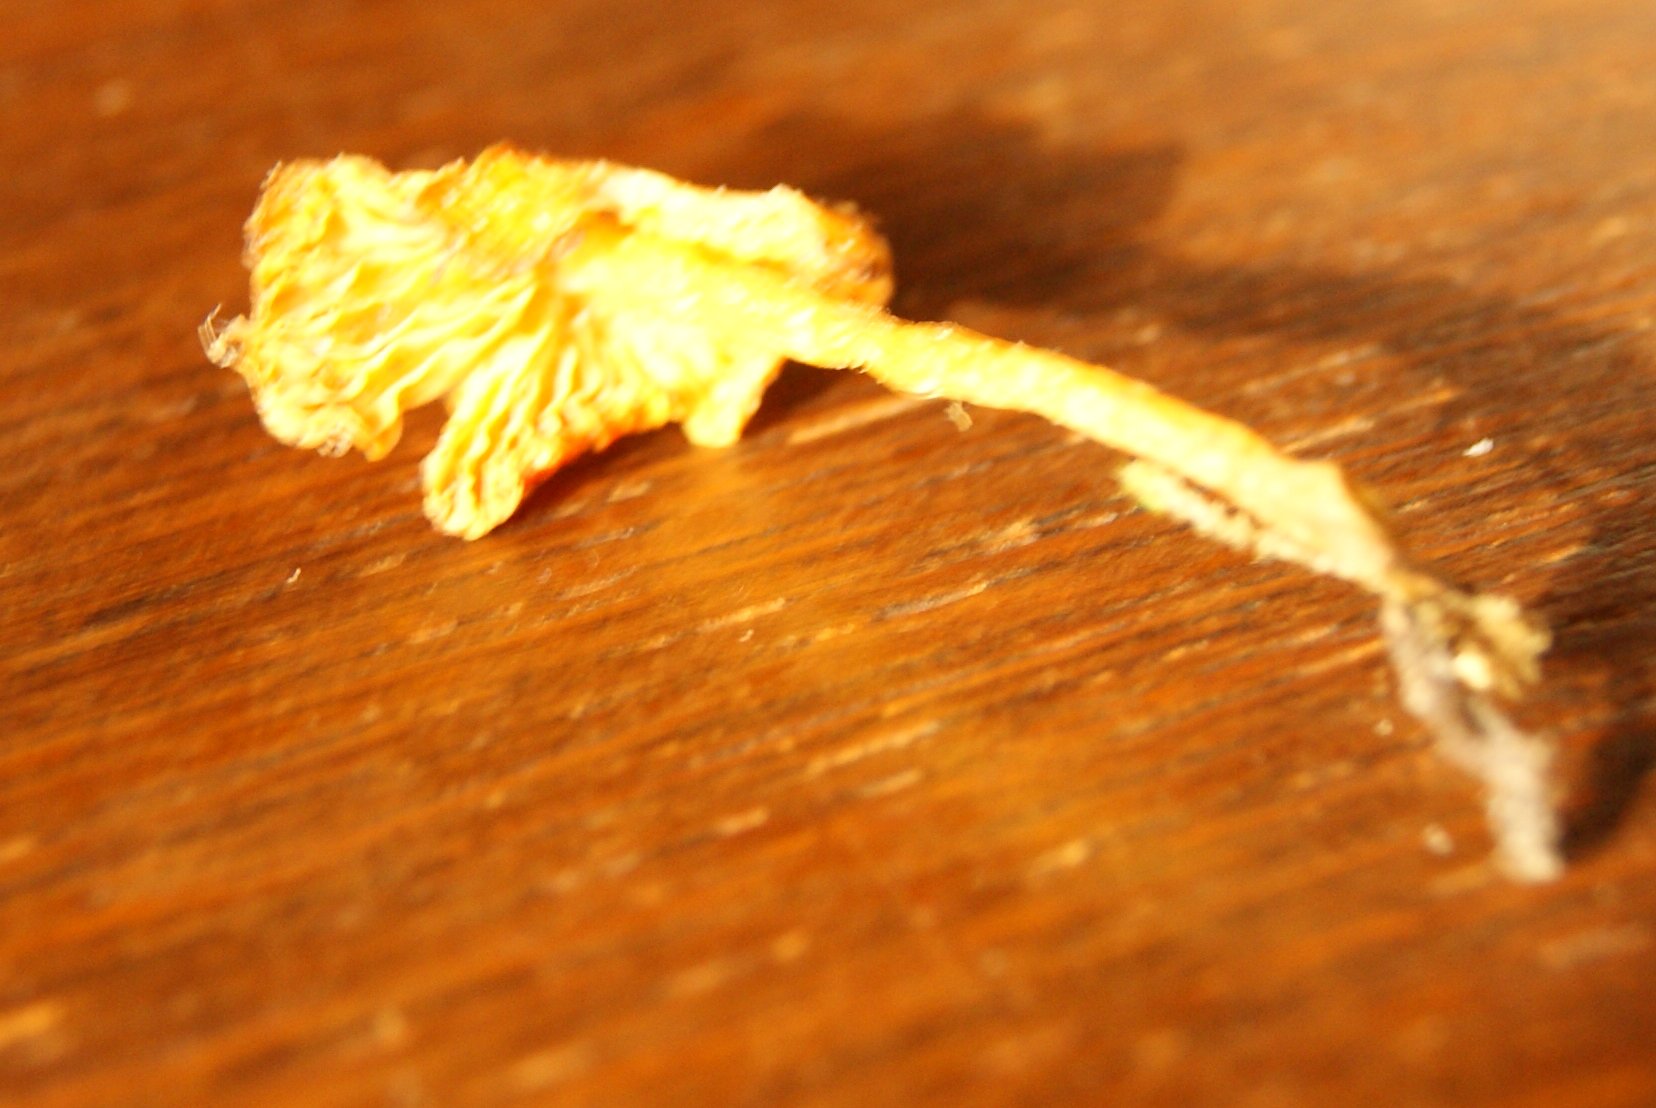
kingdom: Fungi
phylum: Basidiomycota
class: Agaricomycetes
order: Agaricales
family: Hygrophoraceae
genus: Hygrocybe
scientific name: Hygrocybe acutoconica
